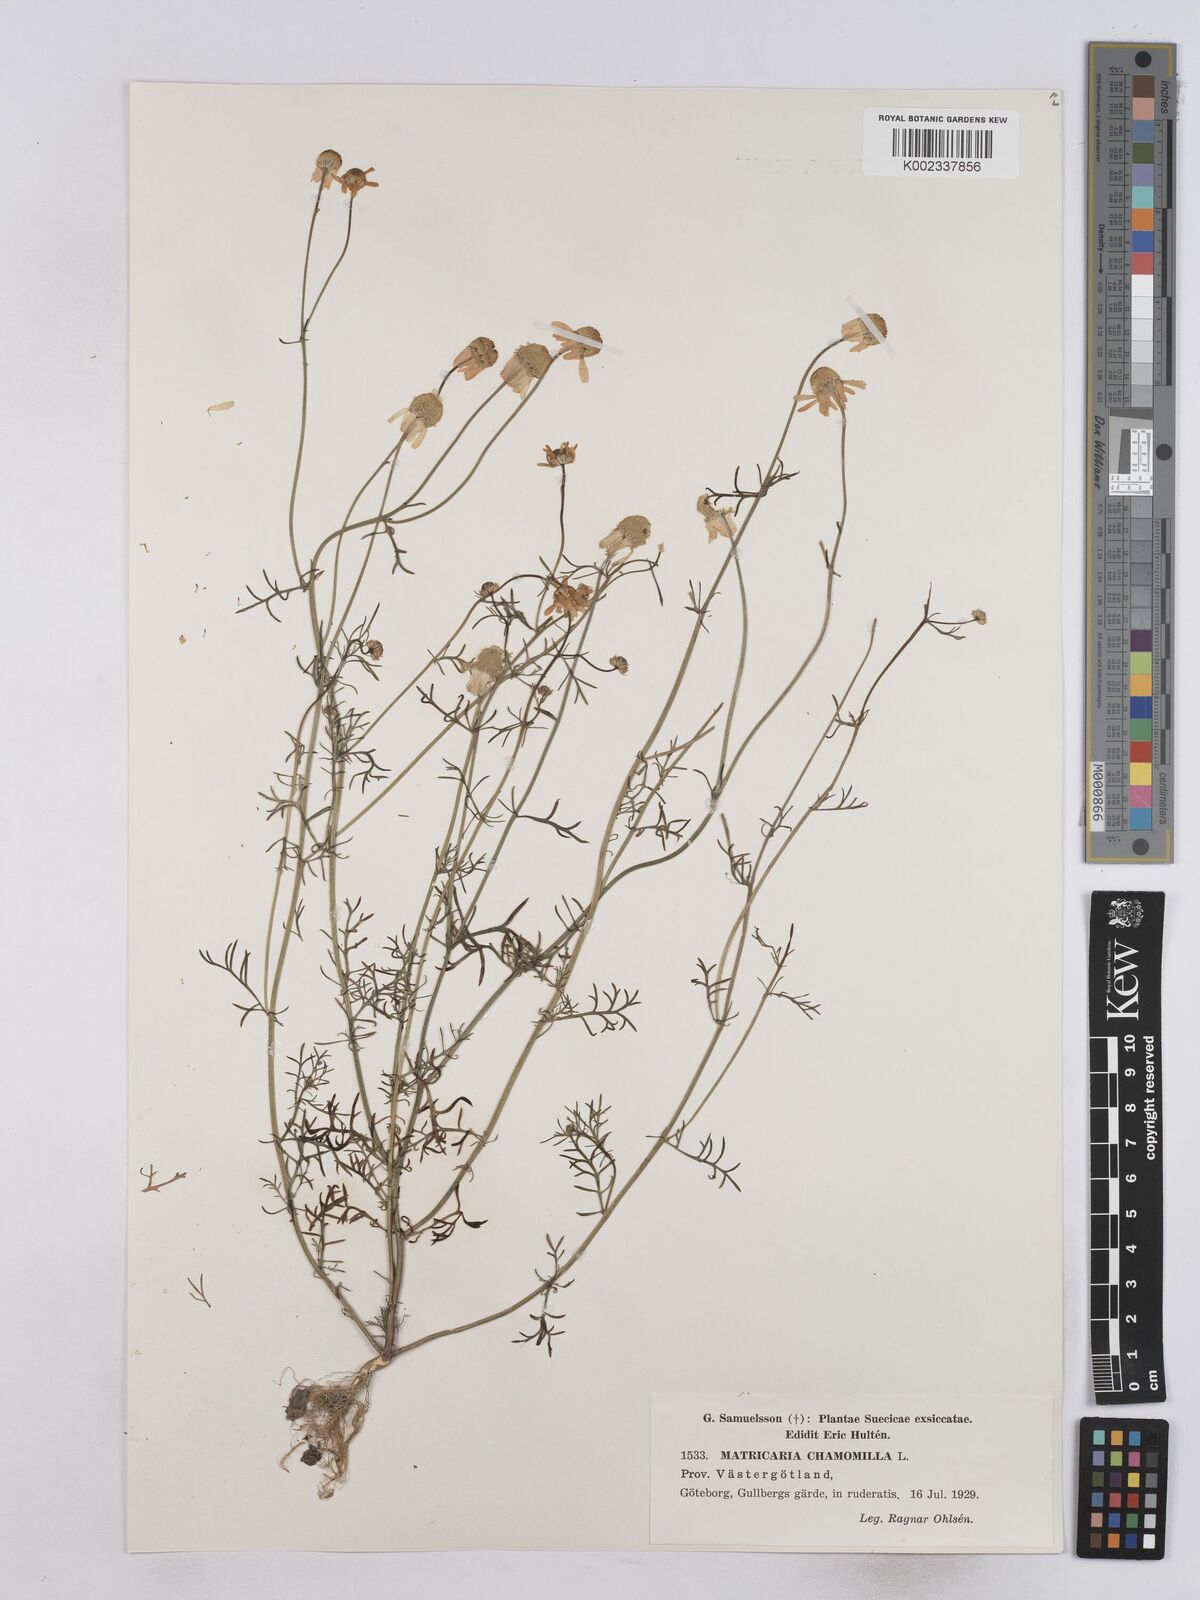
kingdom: Plantae
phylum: Tracheophyta
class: Magnoliopsida
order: Asterales
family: Asteraceae
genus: Matricaria
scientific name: Matricaria chamomilla
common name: Scented mayweed
